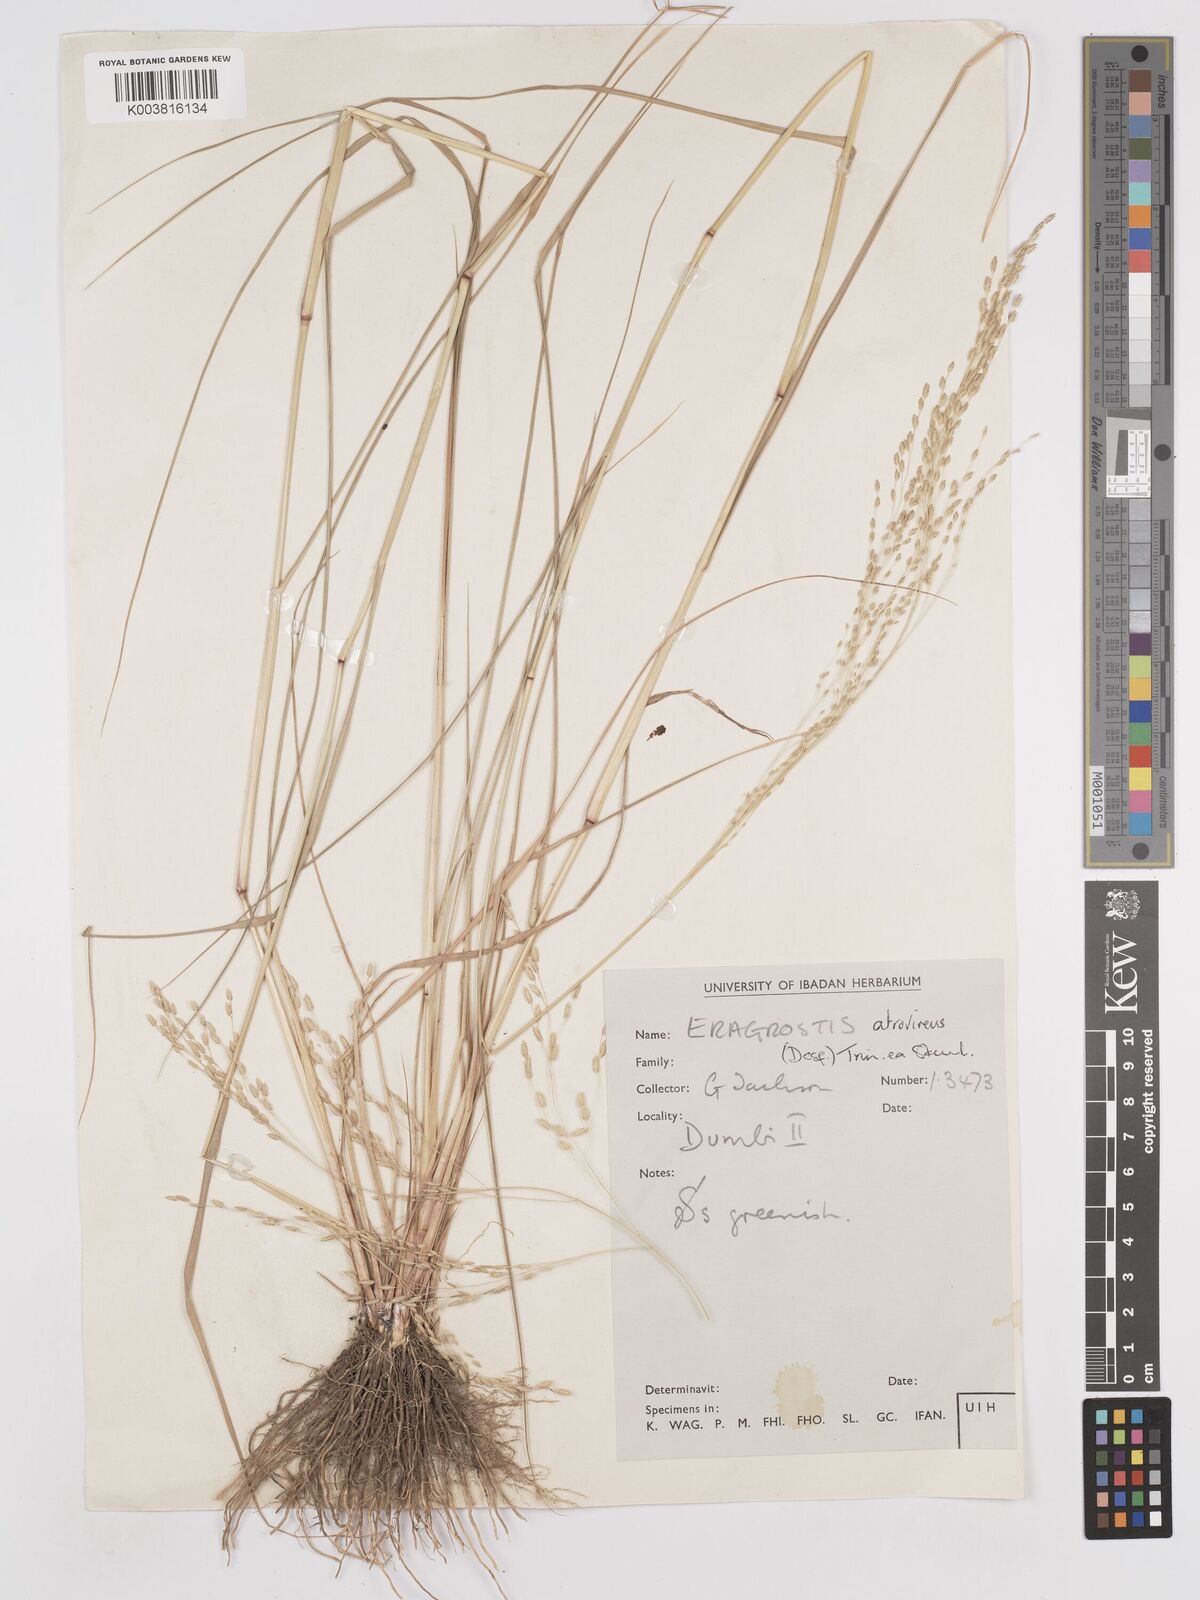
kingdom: Plantae
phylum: Tracheophyta
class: Liliopsida
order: Poales
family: Poaceae
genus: Eragrostis
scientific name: Eragrostis atrovirens
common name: Thalia lovegrass
